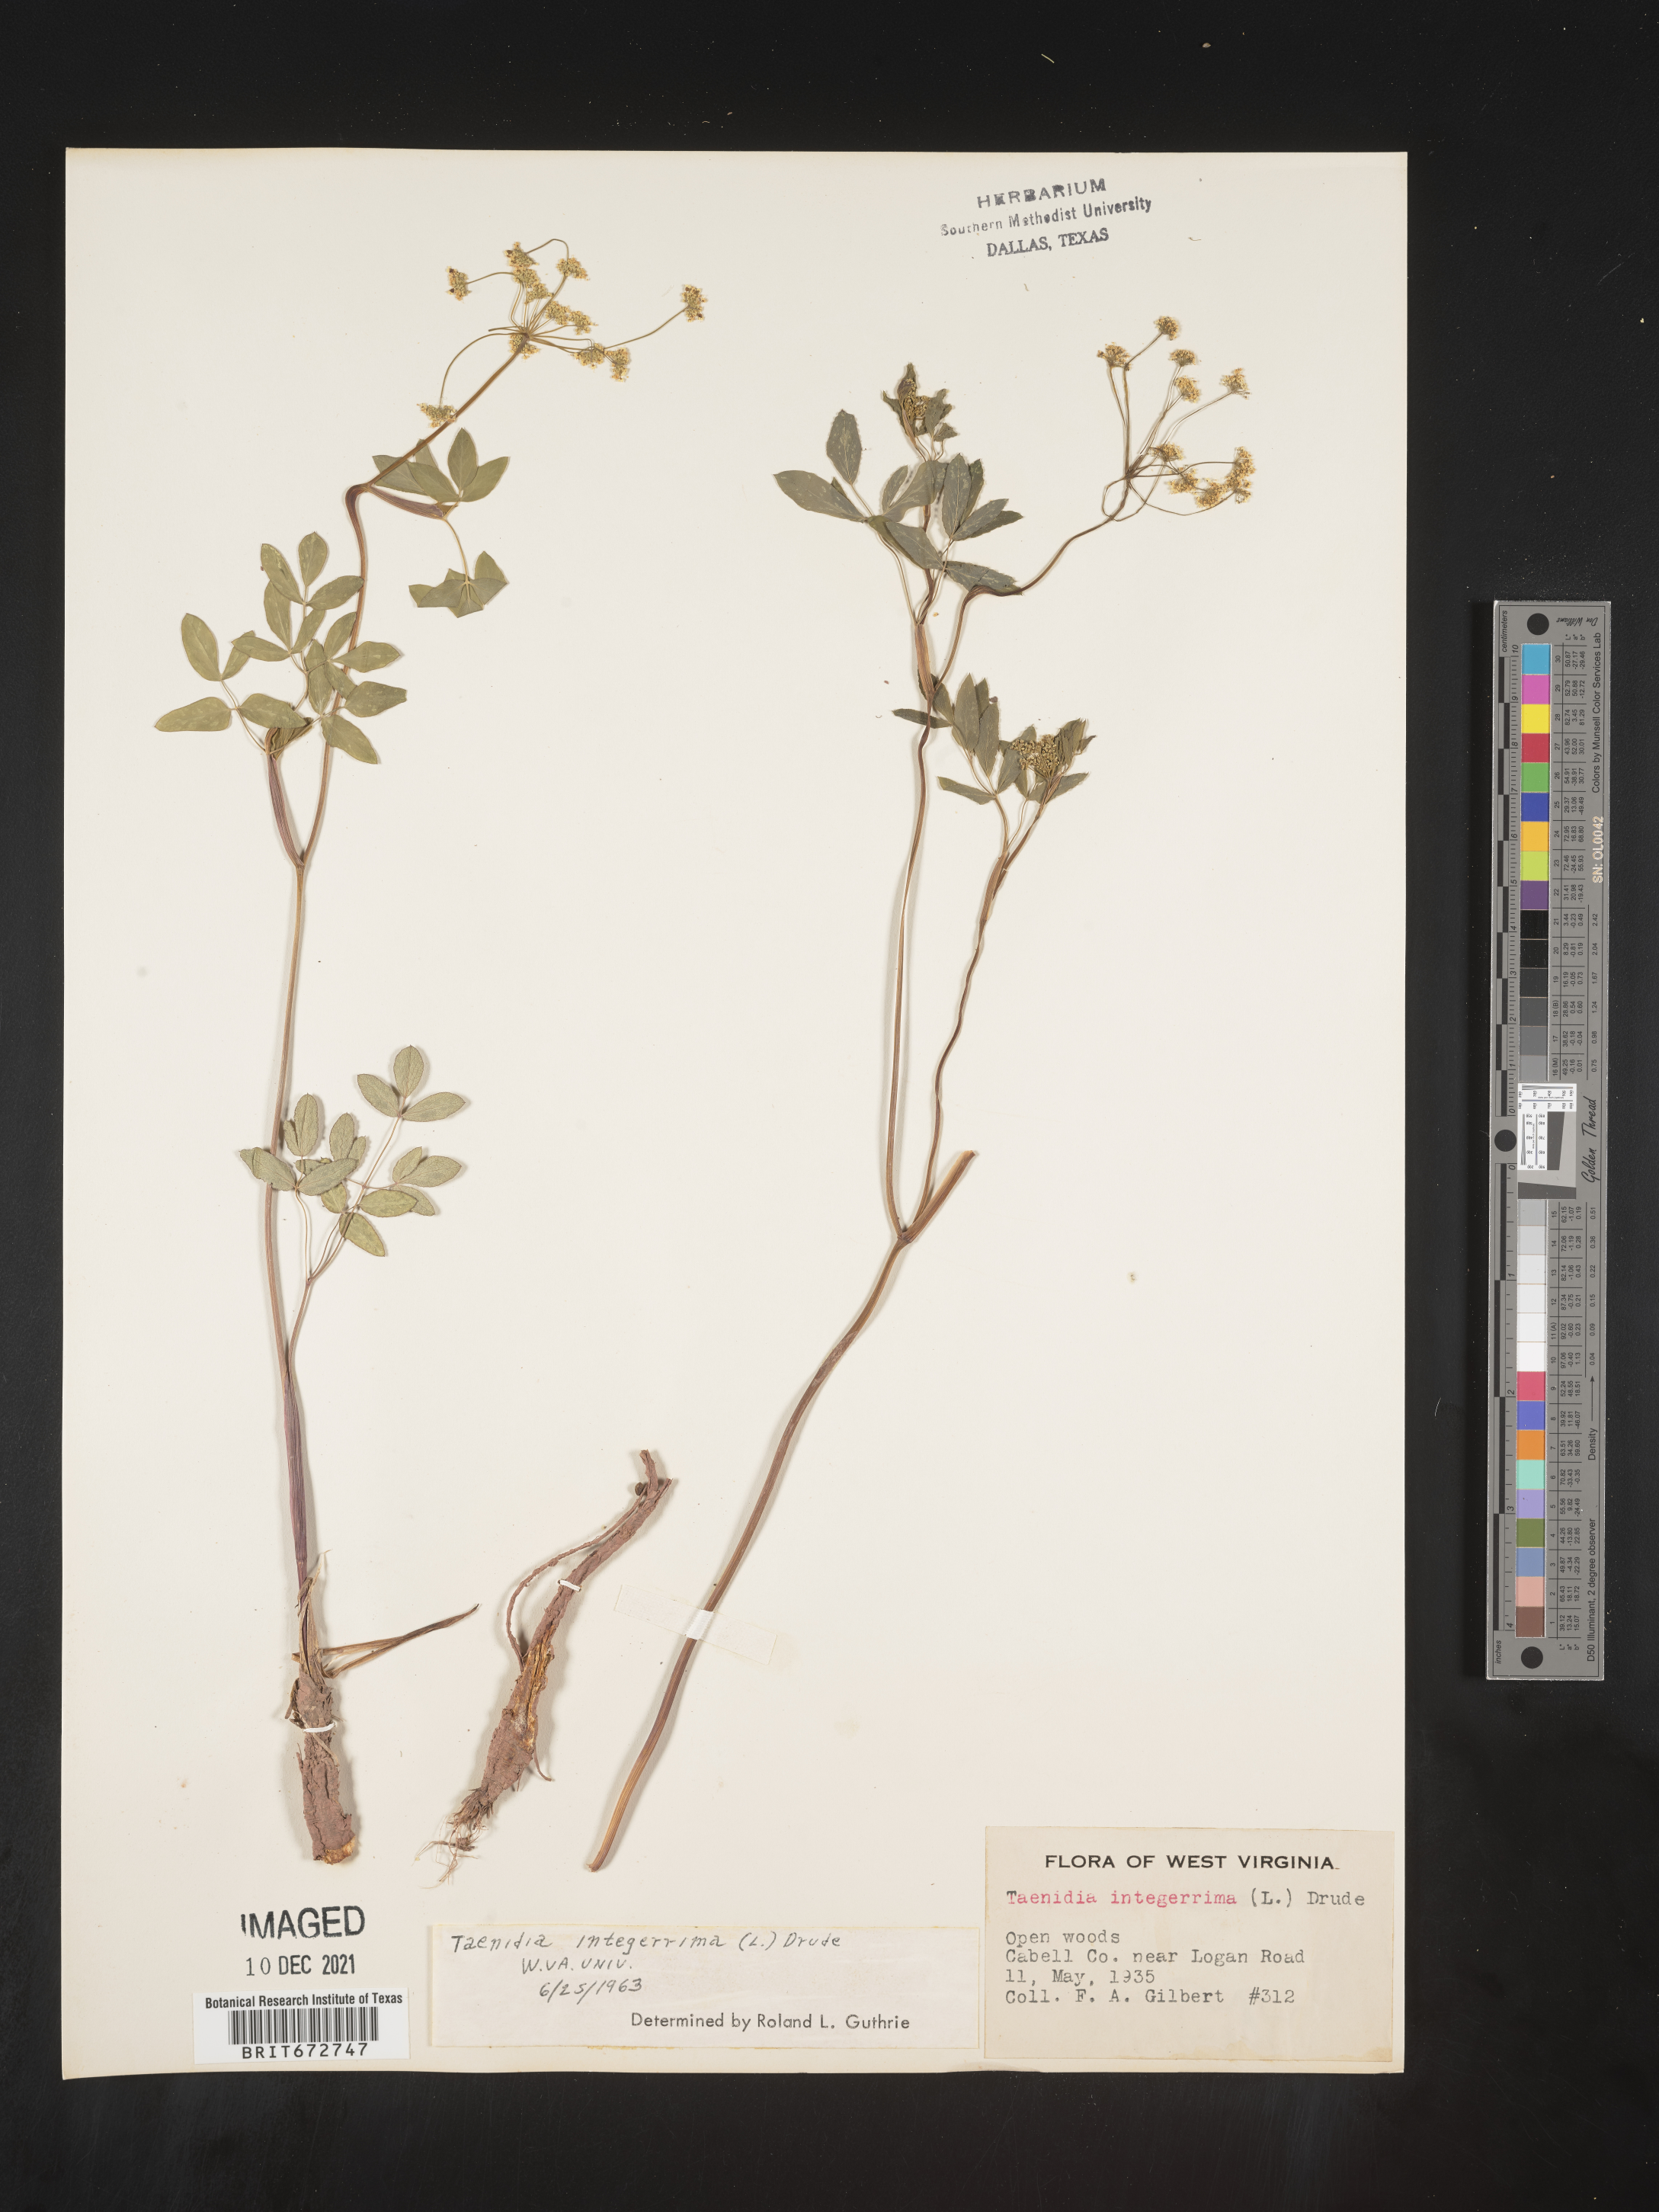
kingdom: Plantae
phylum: Tracheophyta
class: Magnoliopsida
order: Apiales
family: Apiaceae
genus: Taenidia
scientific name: Taenidia
